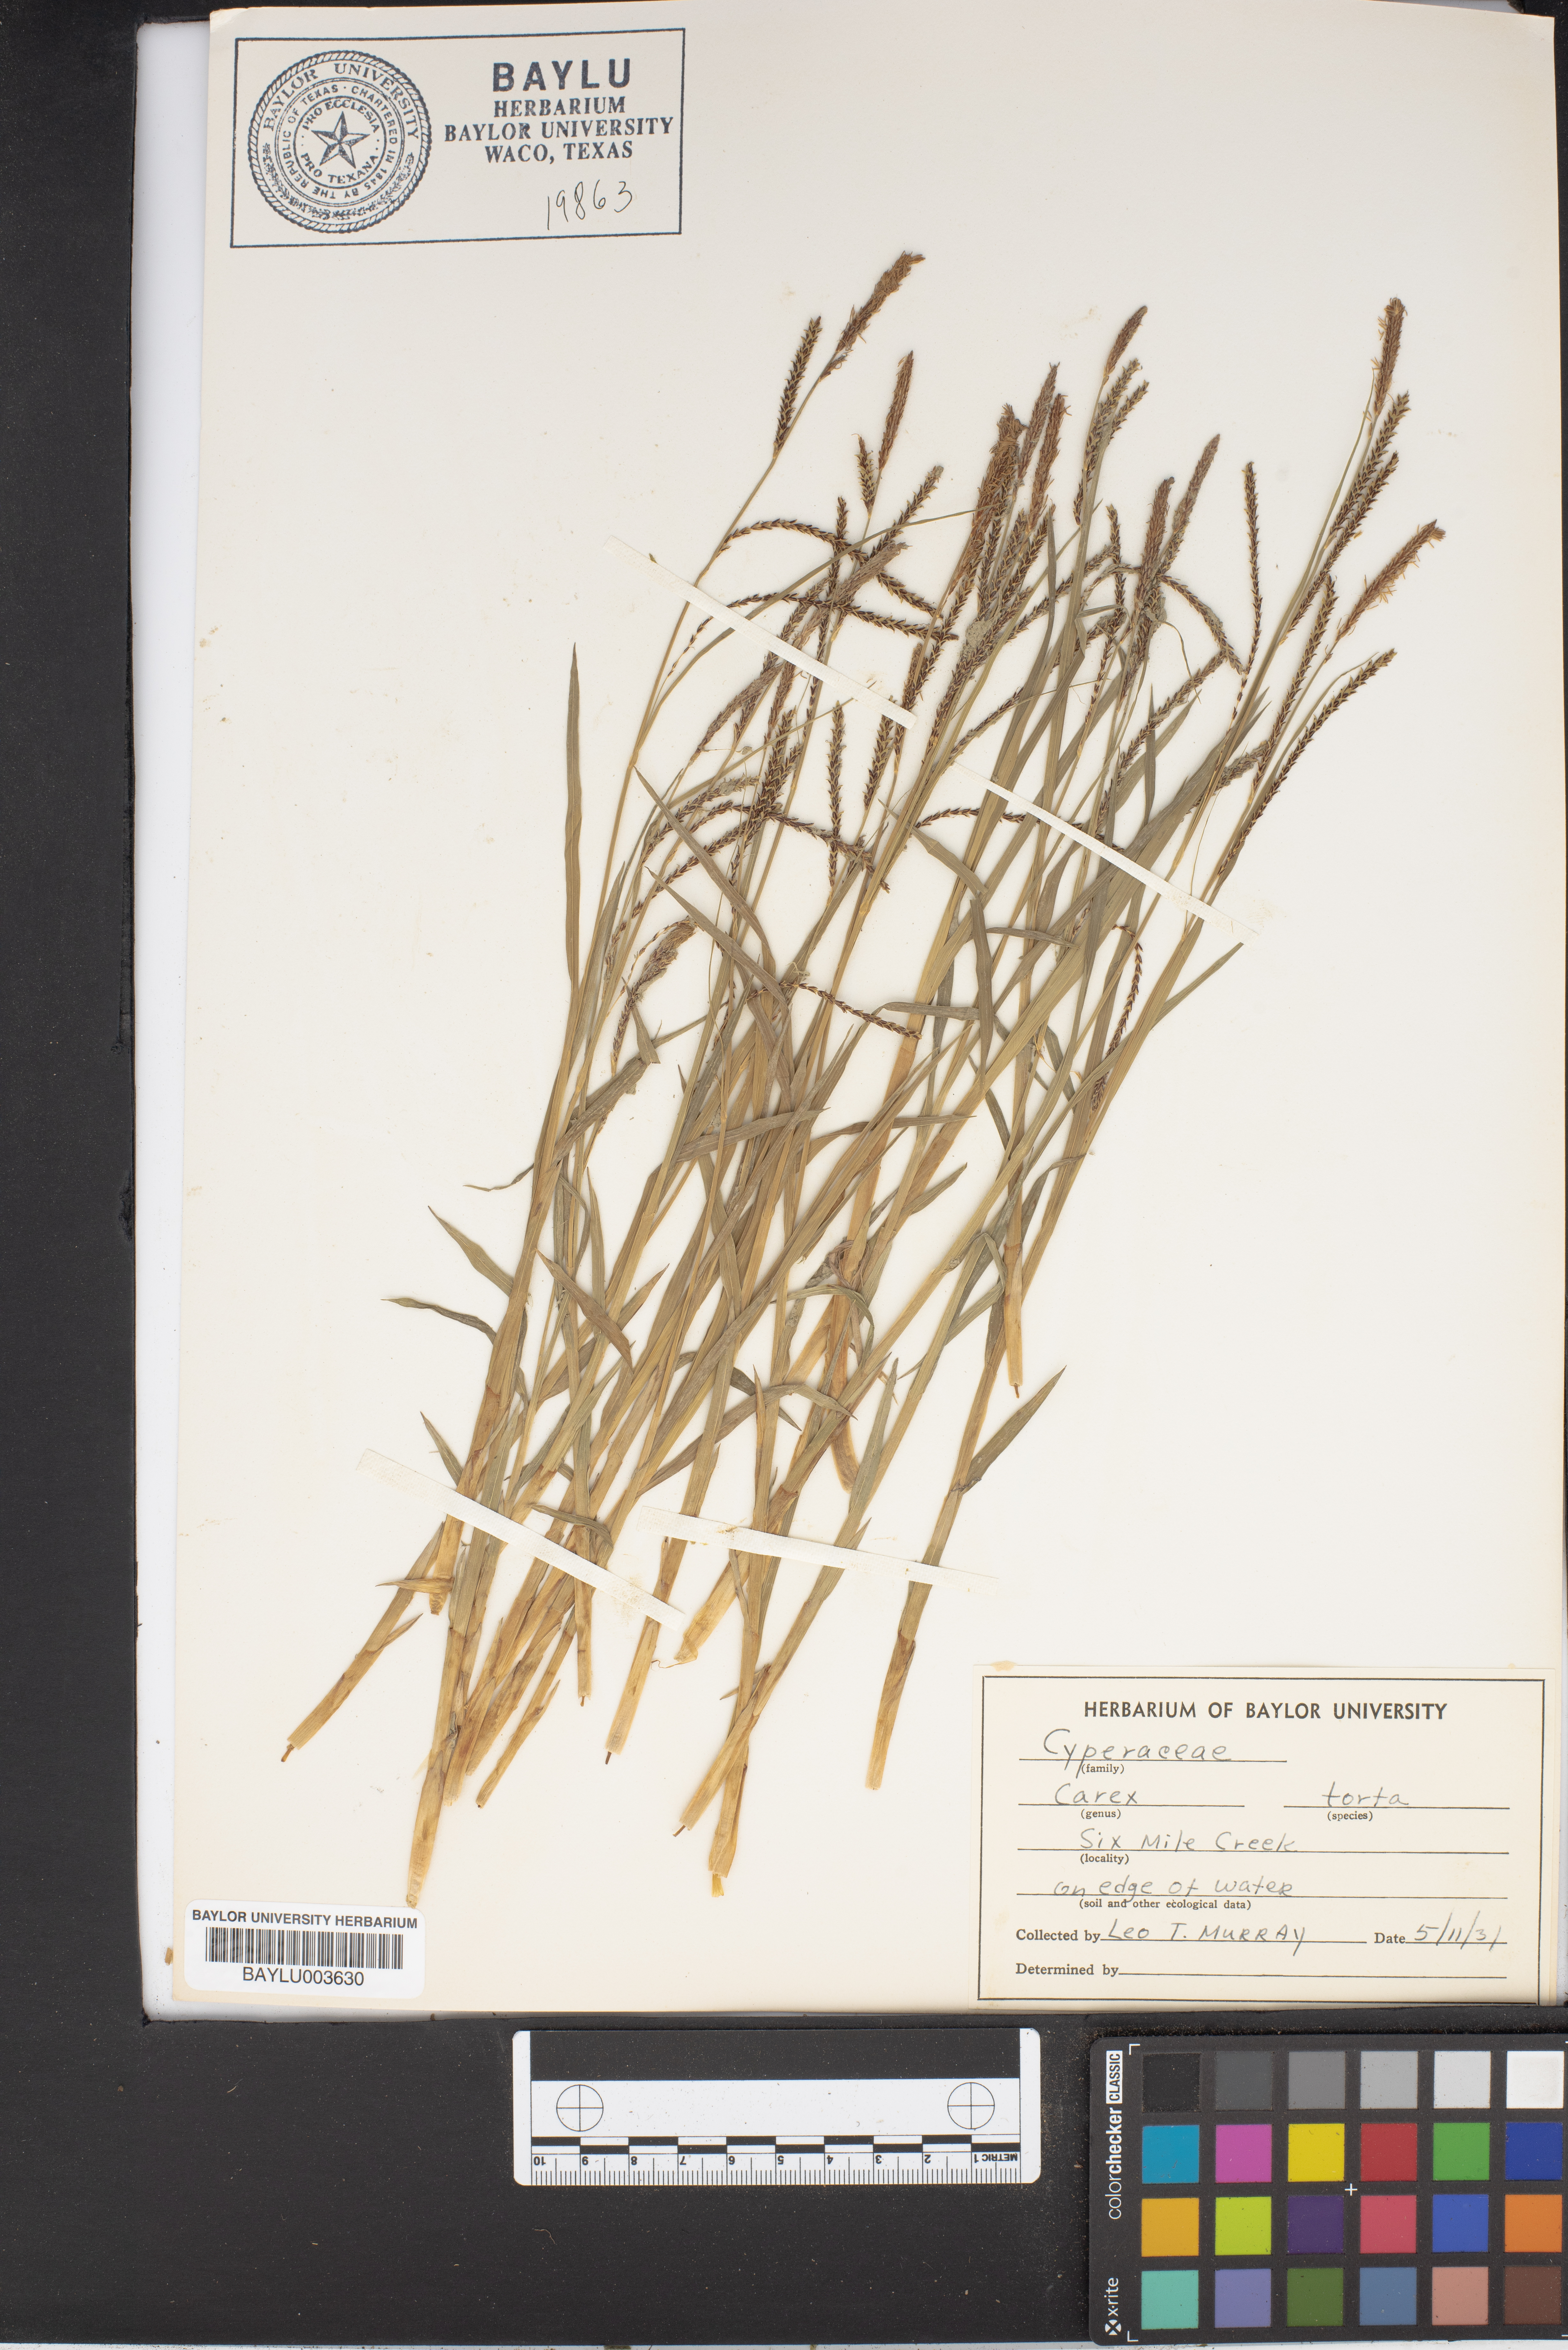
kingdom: Plantae
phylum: Tracheophyta
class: Liliopsida
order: Poales
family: Cyperaceae
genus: Carex
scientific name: Carex torta
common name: Twisted sedge
